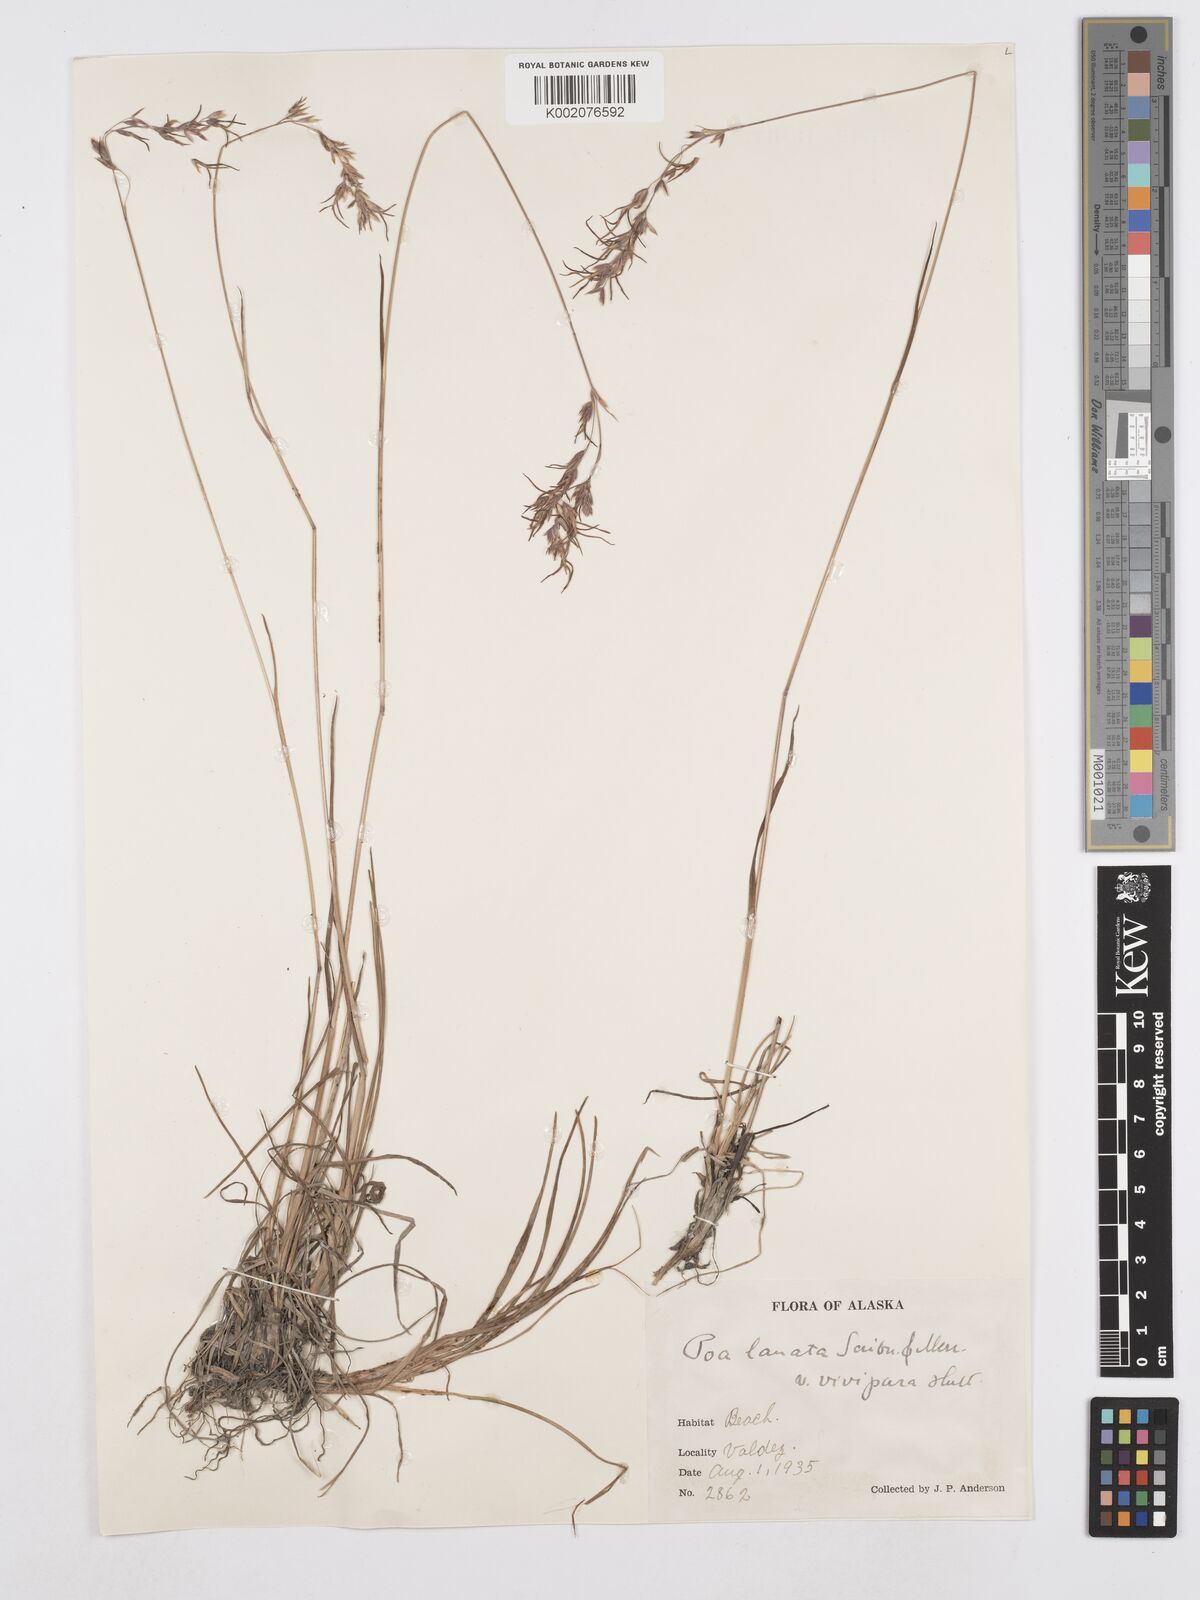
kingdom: Plantae
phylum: Tracheophyta
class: Liliopsida
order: Poales
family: Poaceae
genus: Poa
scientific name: Poa lanata
